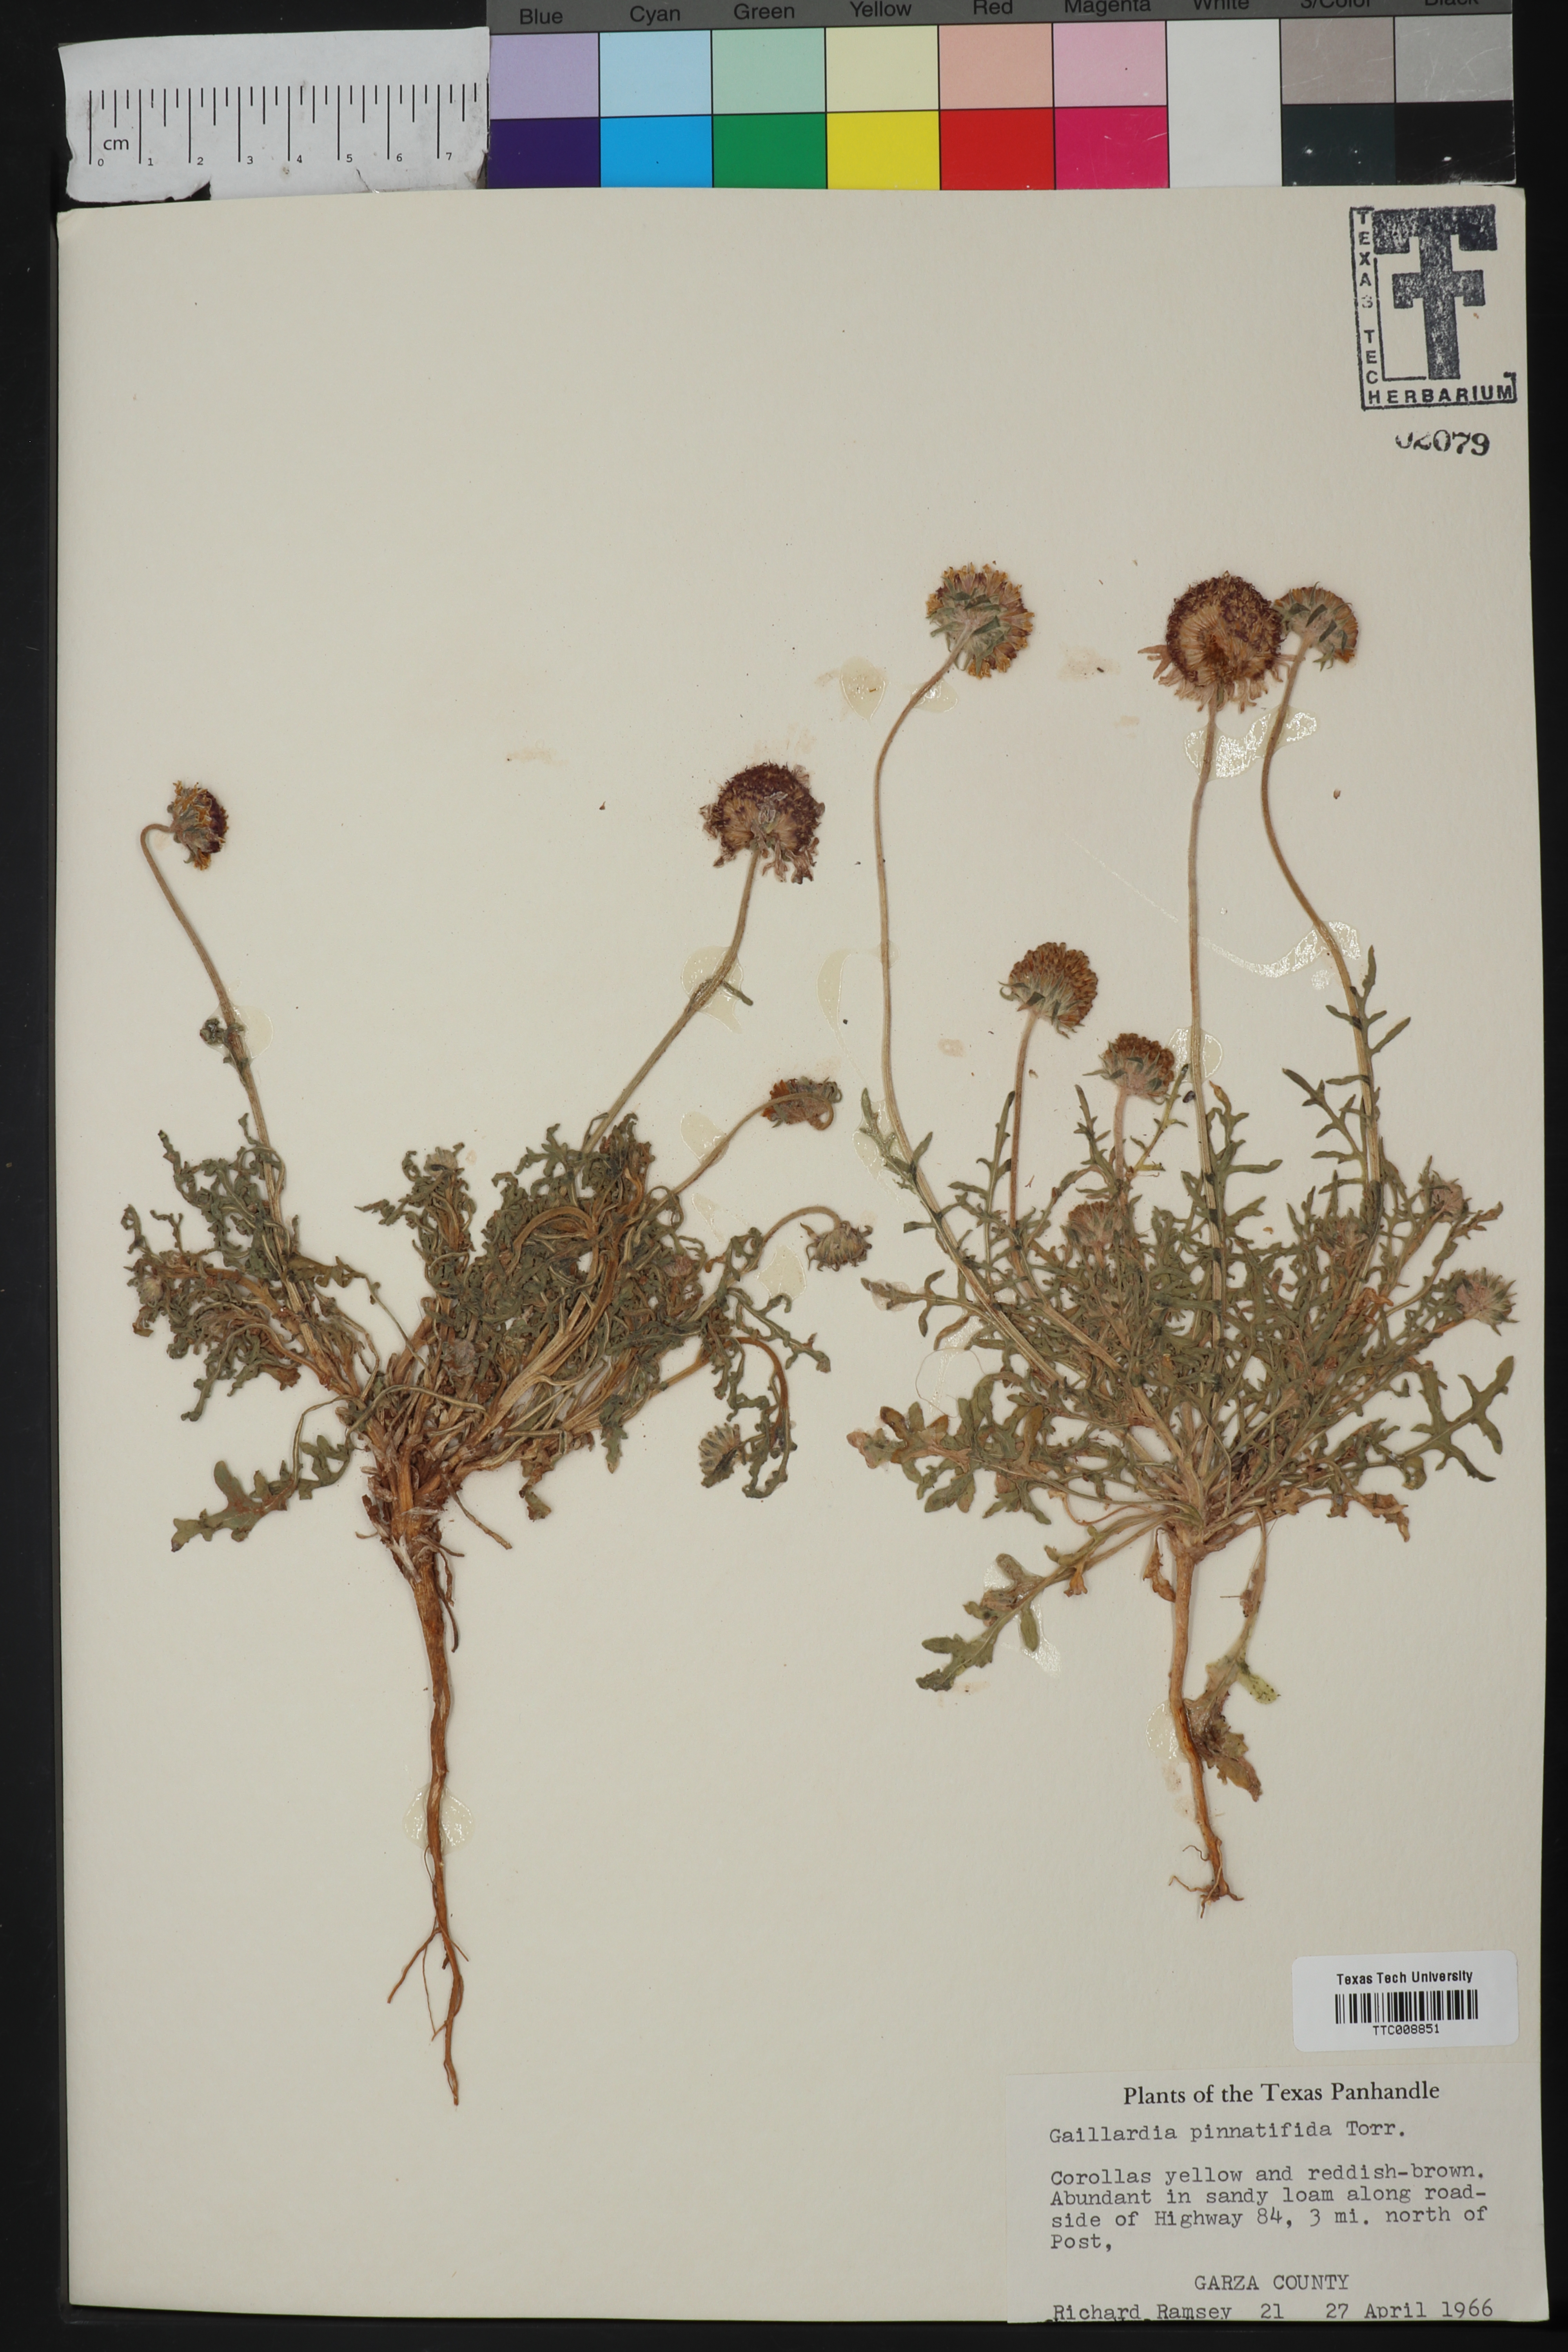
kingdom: Plantae
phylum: Tracheophyta
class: Magnoliopsida
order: Asterales
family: Asteraceae
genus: Gaillardia
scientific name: Gaillardia pinnatifida
